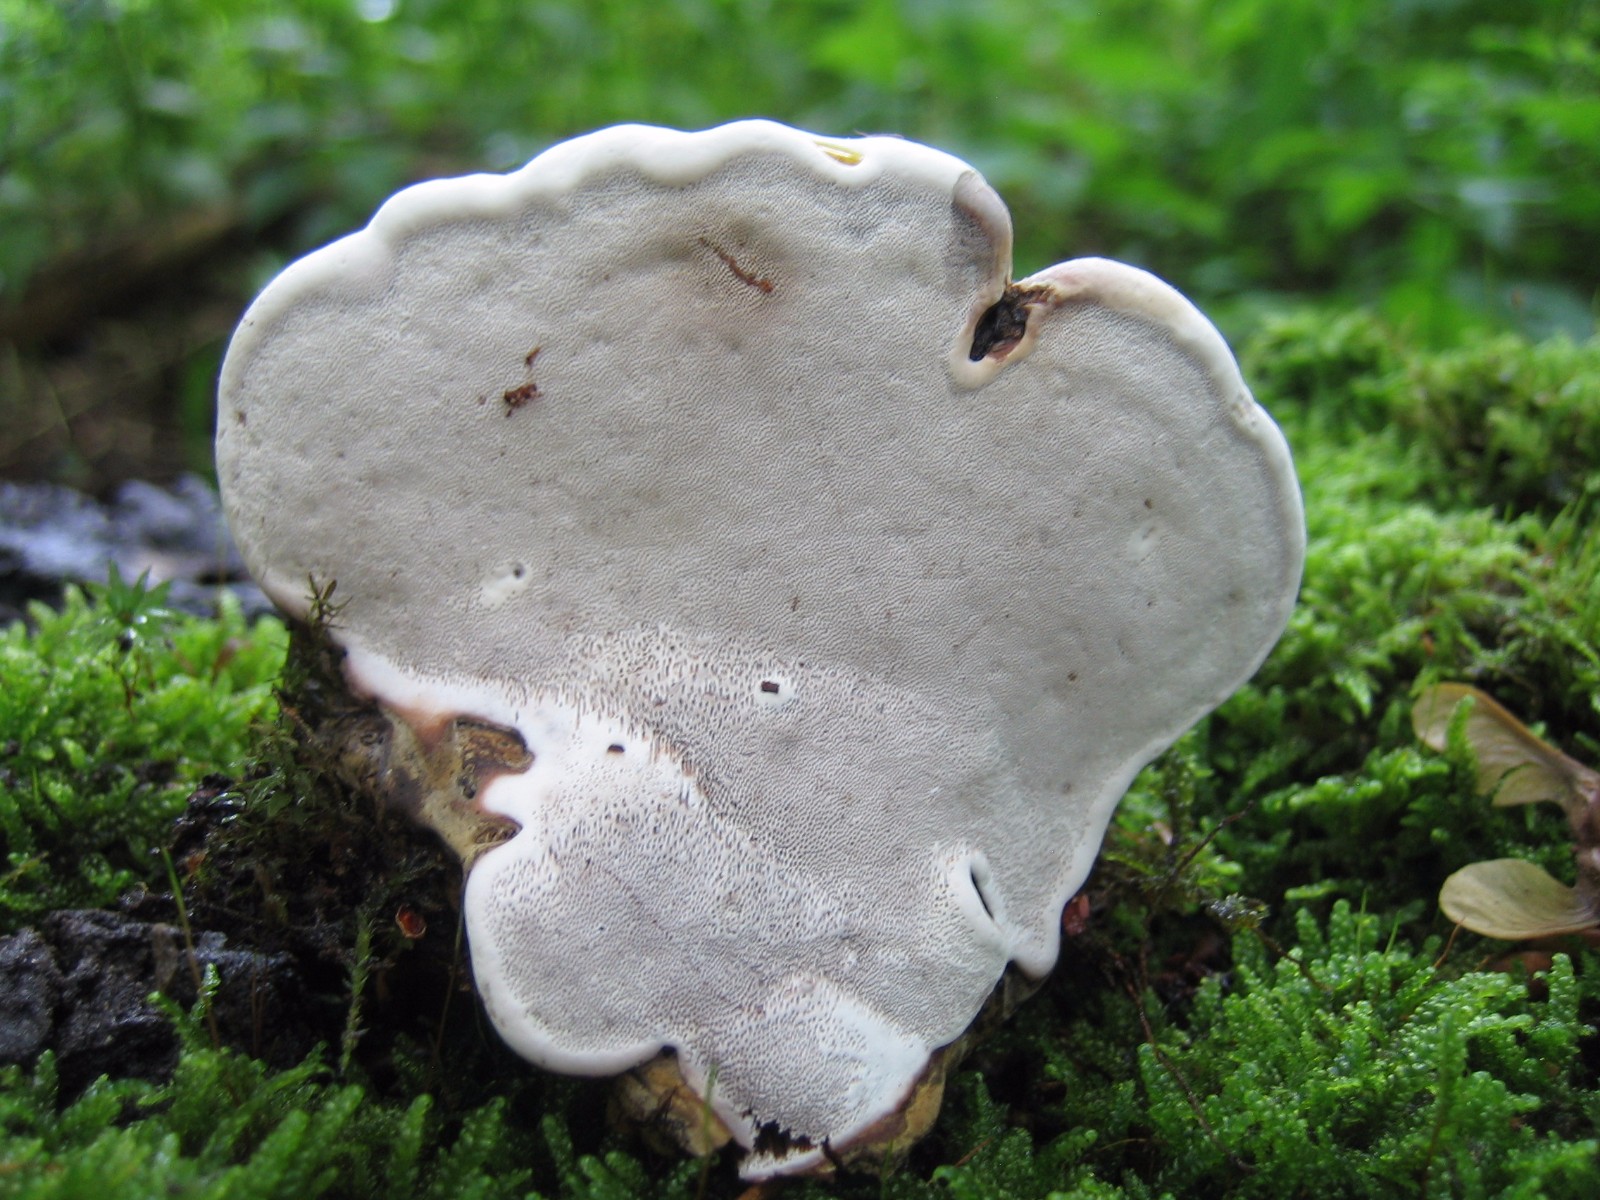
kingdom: Fungi
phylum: Basidiomycota
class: Agaricomycetes
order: Polyporales
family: Polyporaceae
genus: Ganoderma
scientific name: Ganoderma applanatum
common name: flad lakporesvamp
